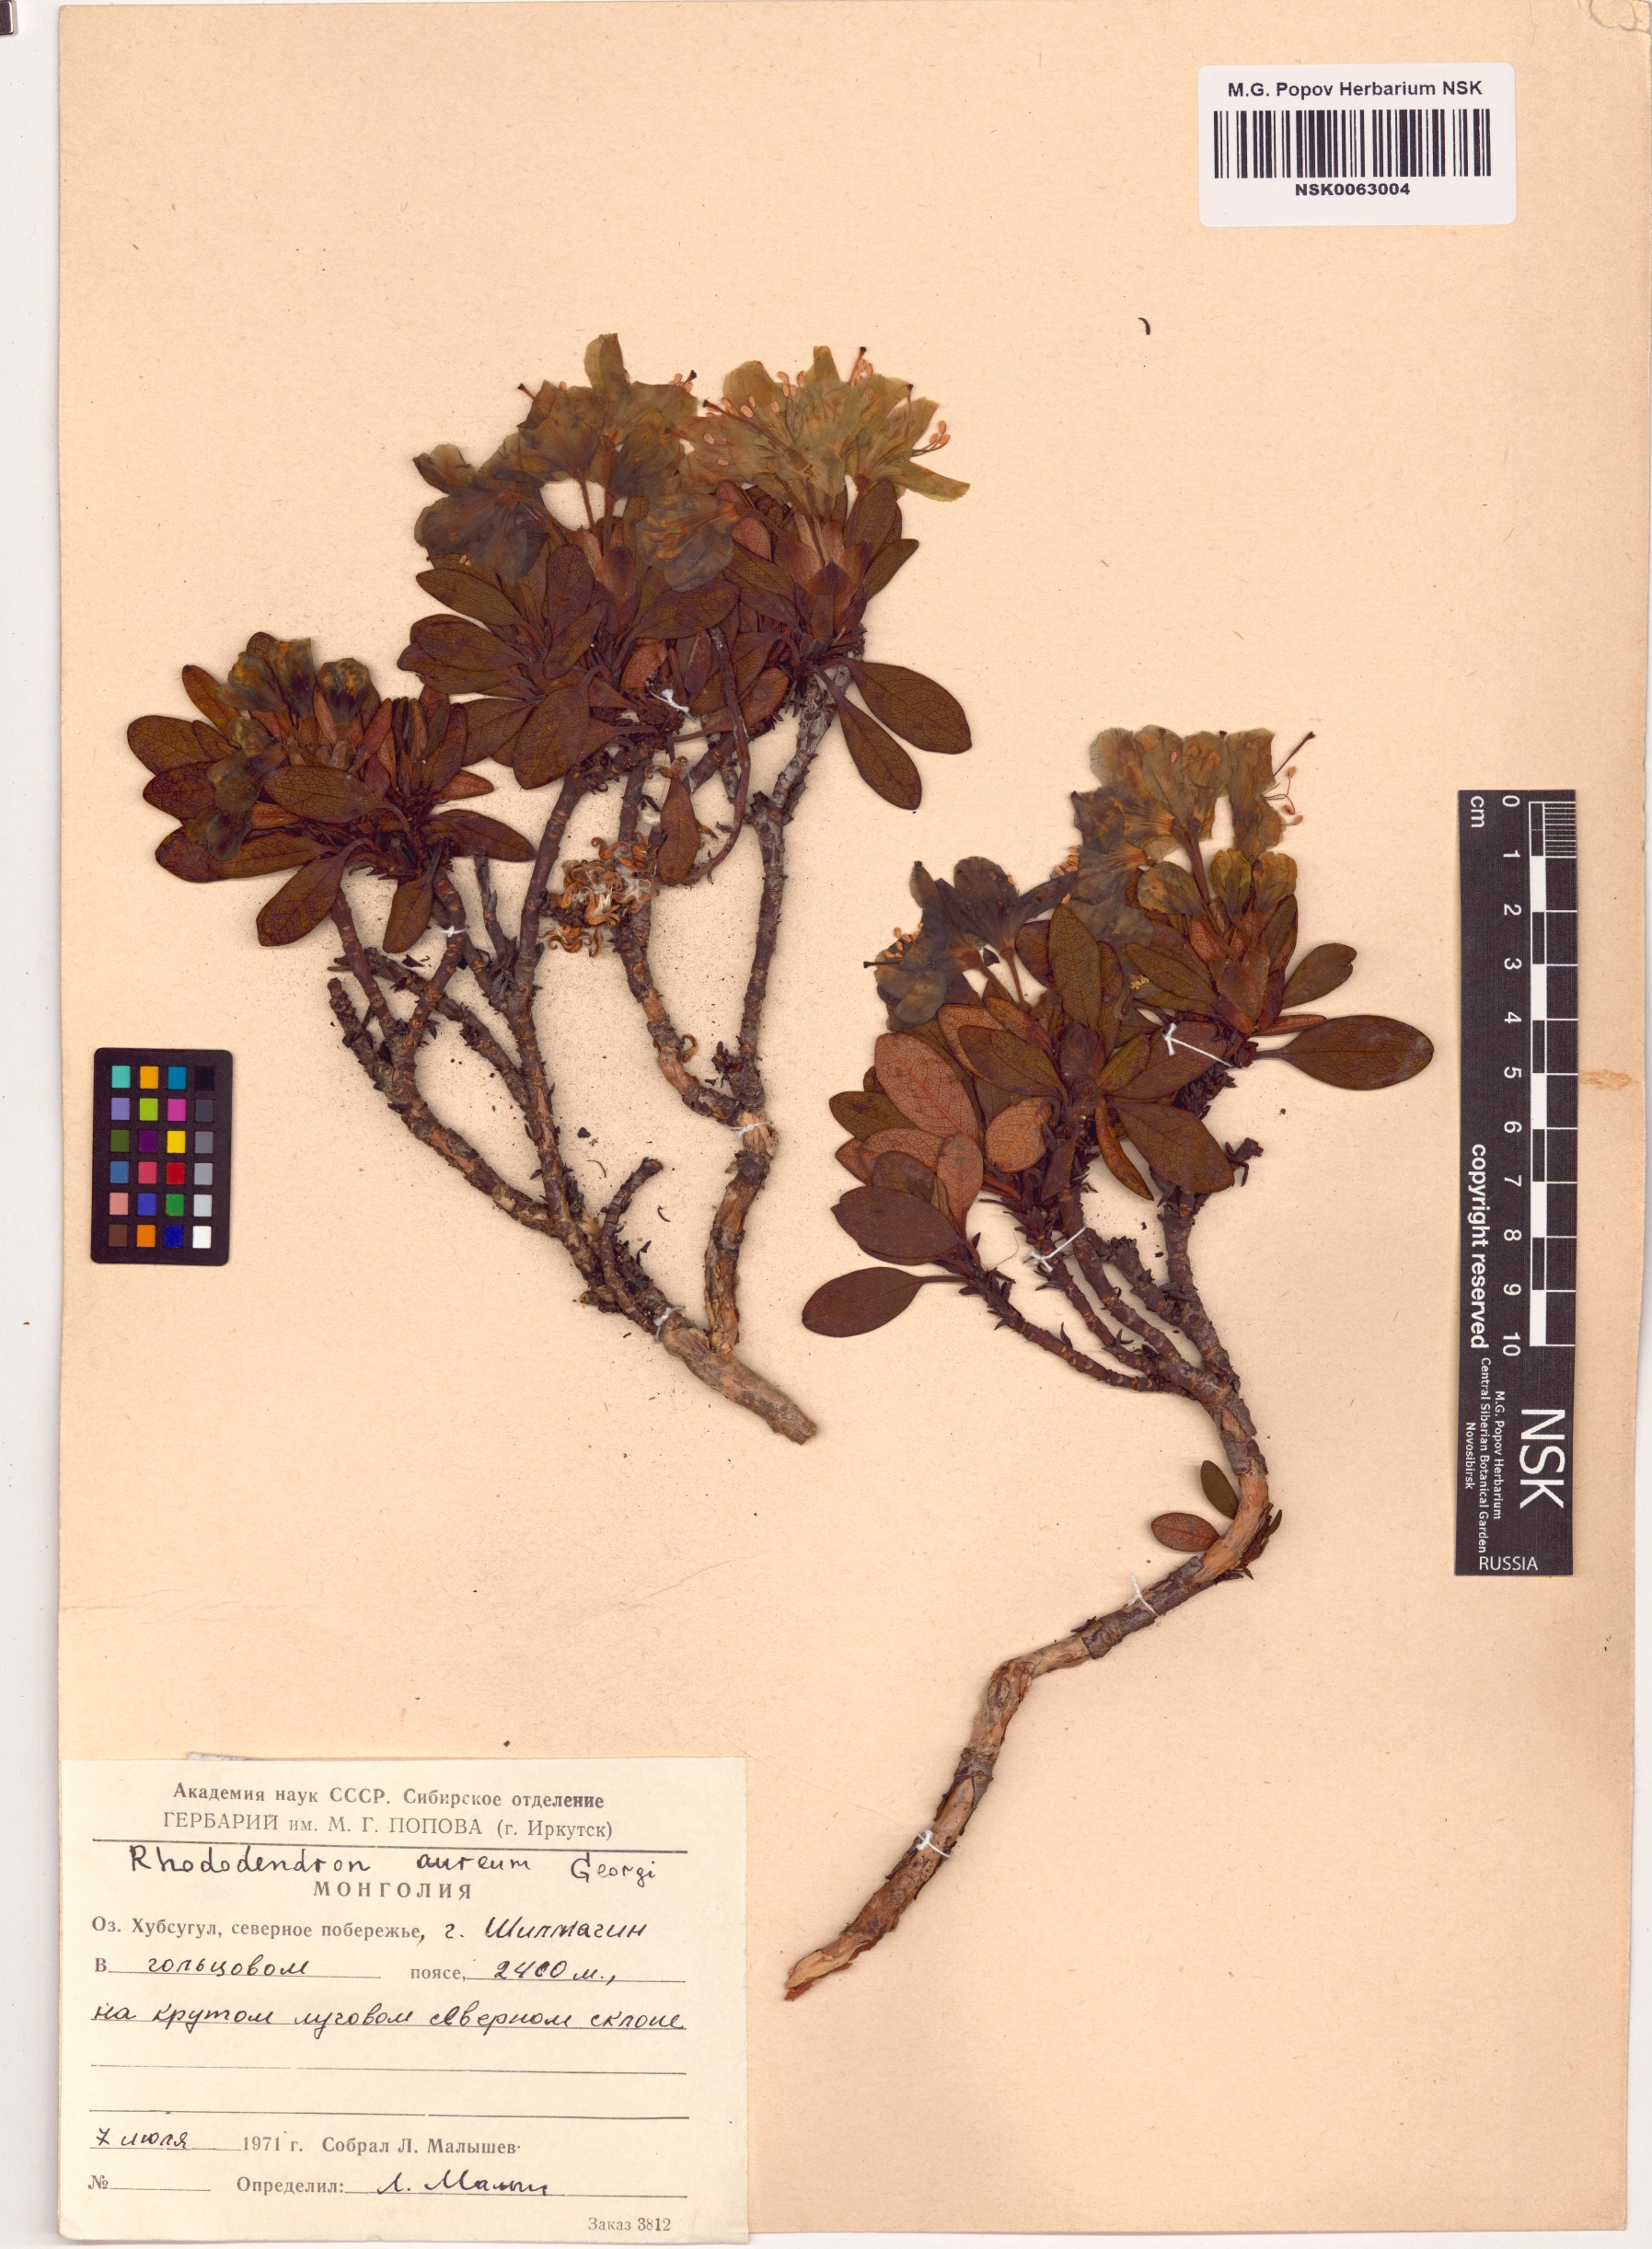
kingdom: Plantae
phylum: Tracheophyta
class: Magnoliopsida
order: Ericales
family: Ericaceae
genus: Rhododendron
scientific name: Rhododendron aureum
